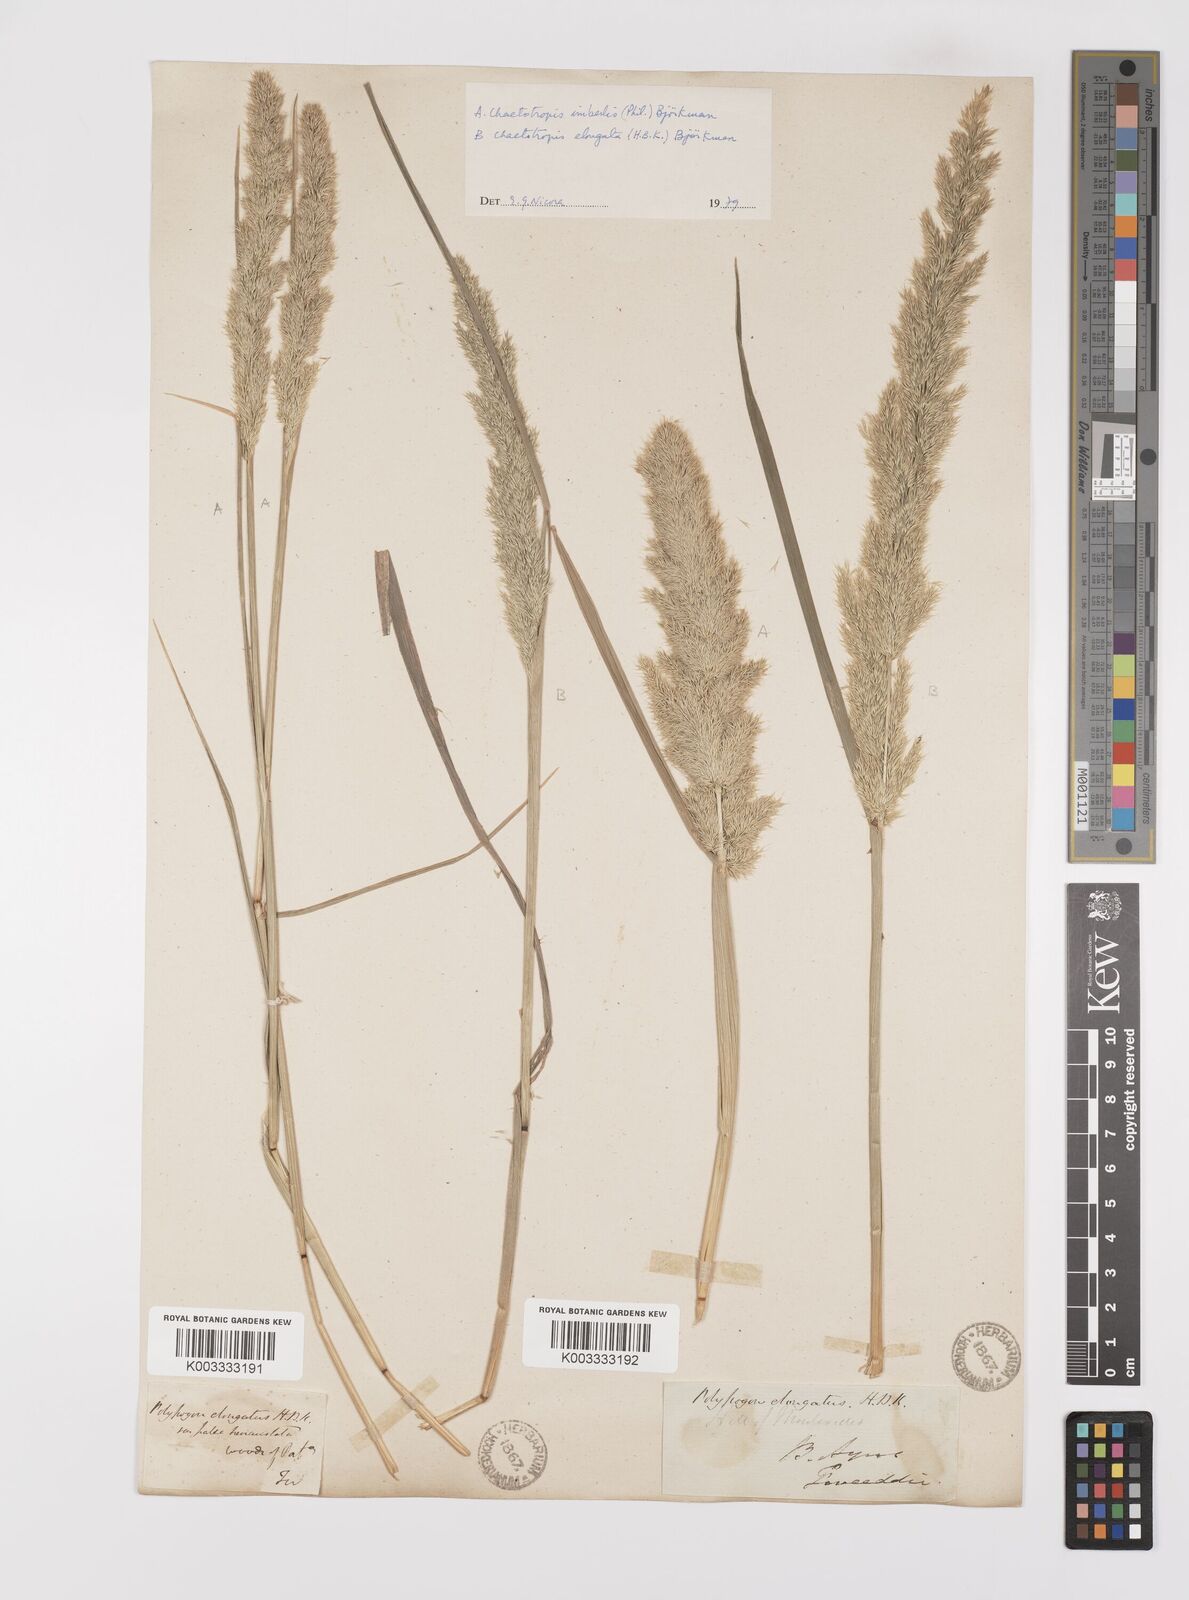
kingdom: Plantae
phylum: Tracheophyta
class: Liliopsida
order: Poales
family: Poaceae
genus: Polypogon
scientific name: Polypogon elongatus
